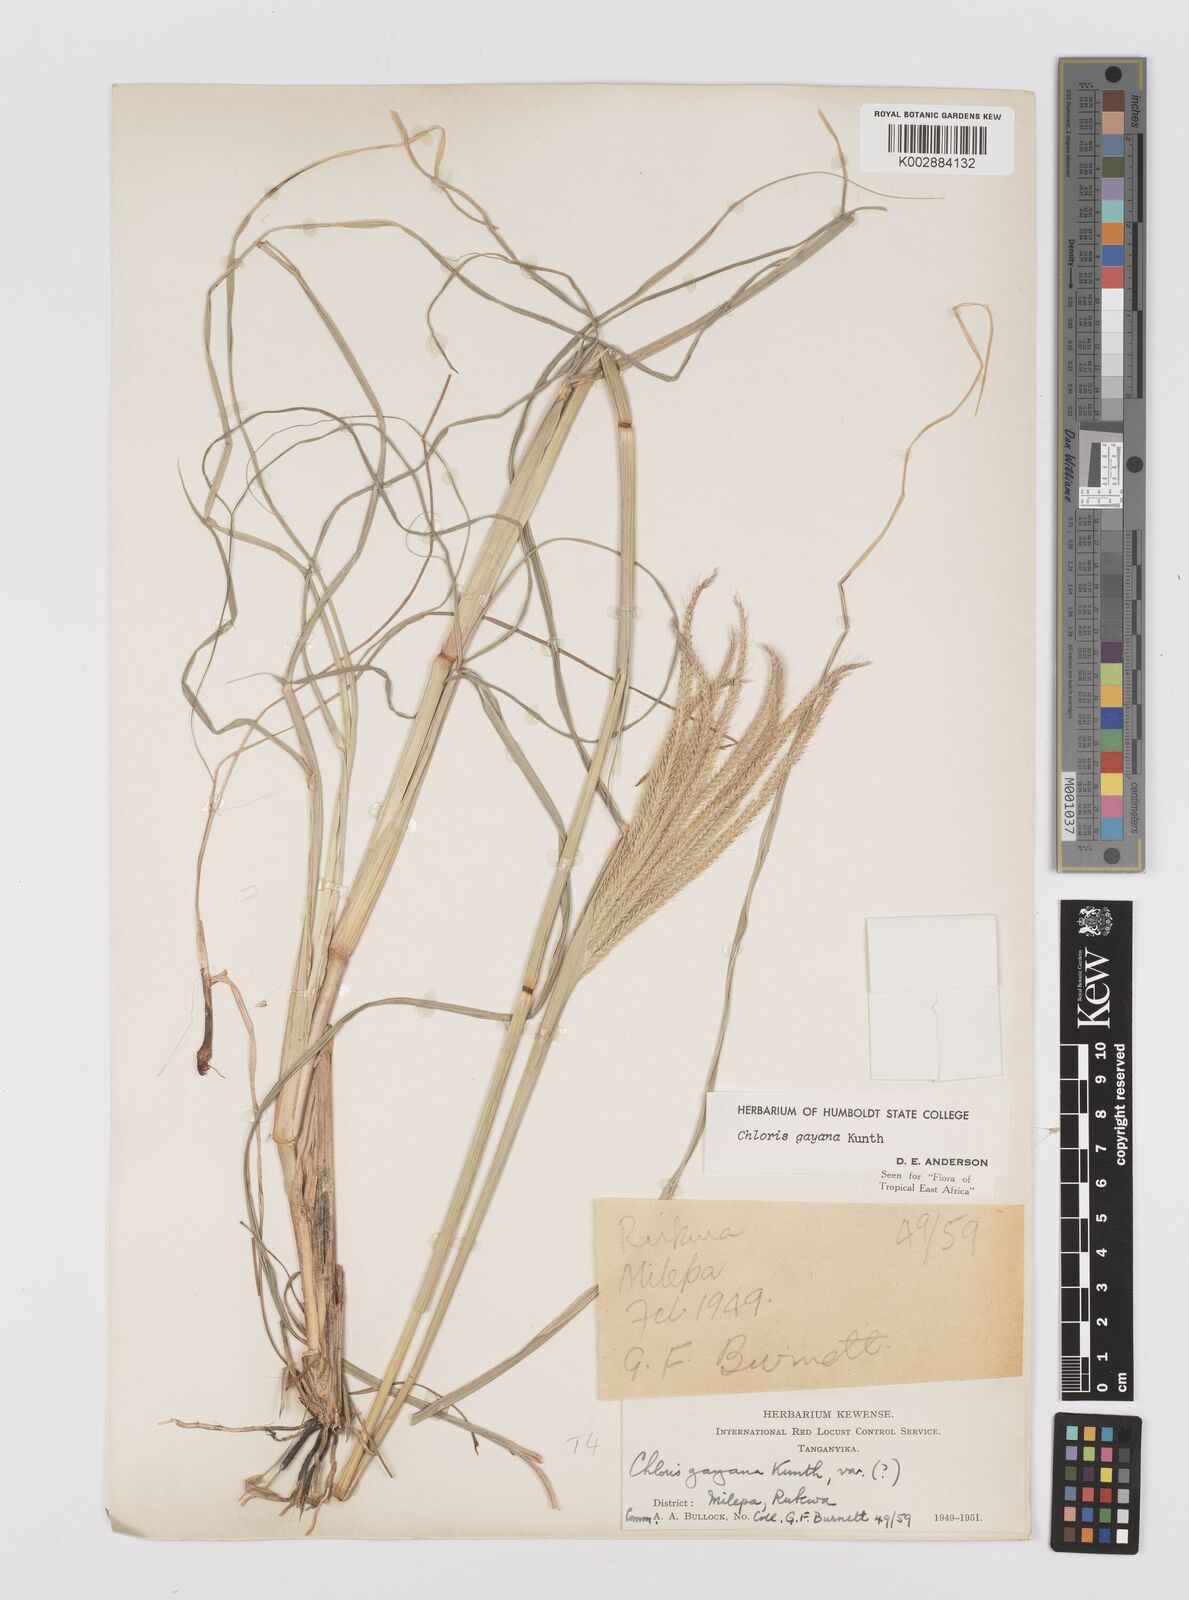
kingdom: Plantae
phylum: Tracheophyta
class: Liliopsida
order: Poales
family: Poaceae
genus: Chloris
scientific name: Chloris gayana
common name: Rhodes grass
